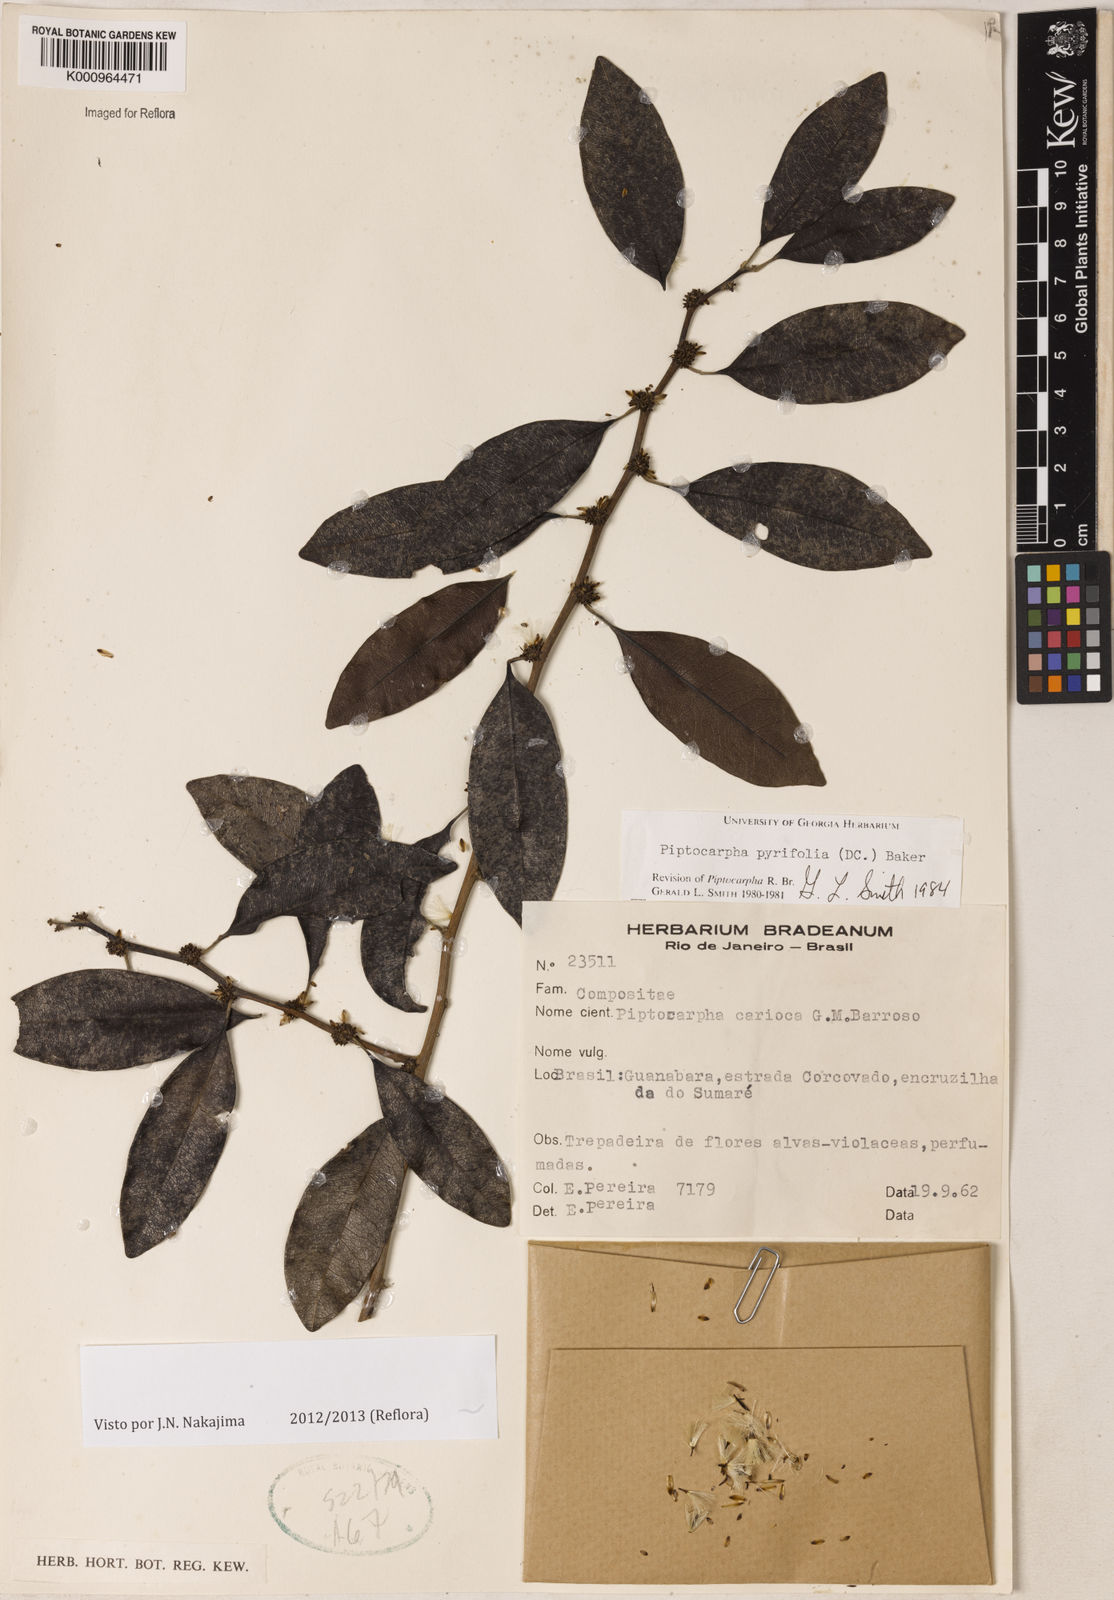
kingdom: Plantae
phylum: Tracheophyta
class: Magnoliopsida
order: Asterales
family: Asteraceae
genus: Piptocarpha
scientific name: Piptocarpha pyrifolia
